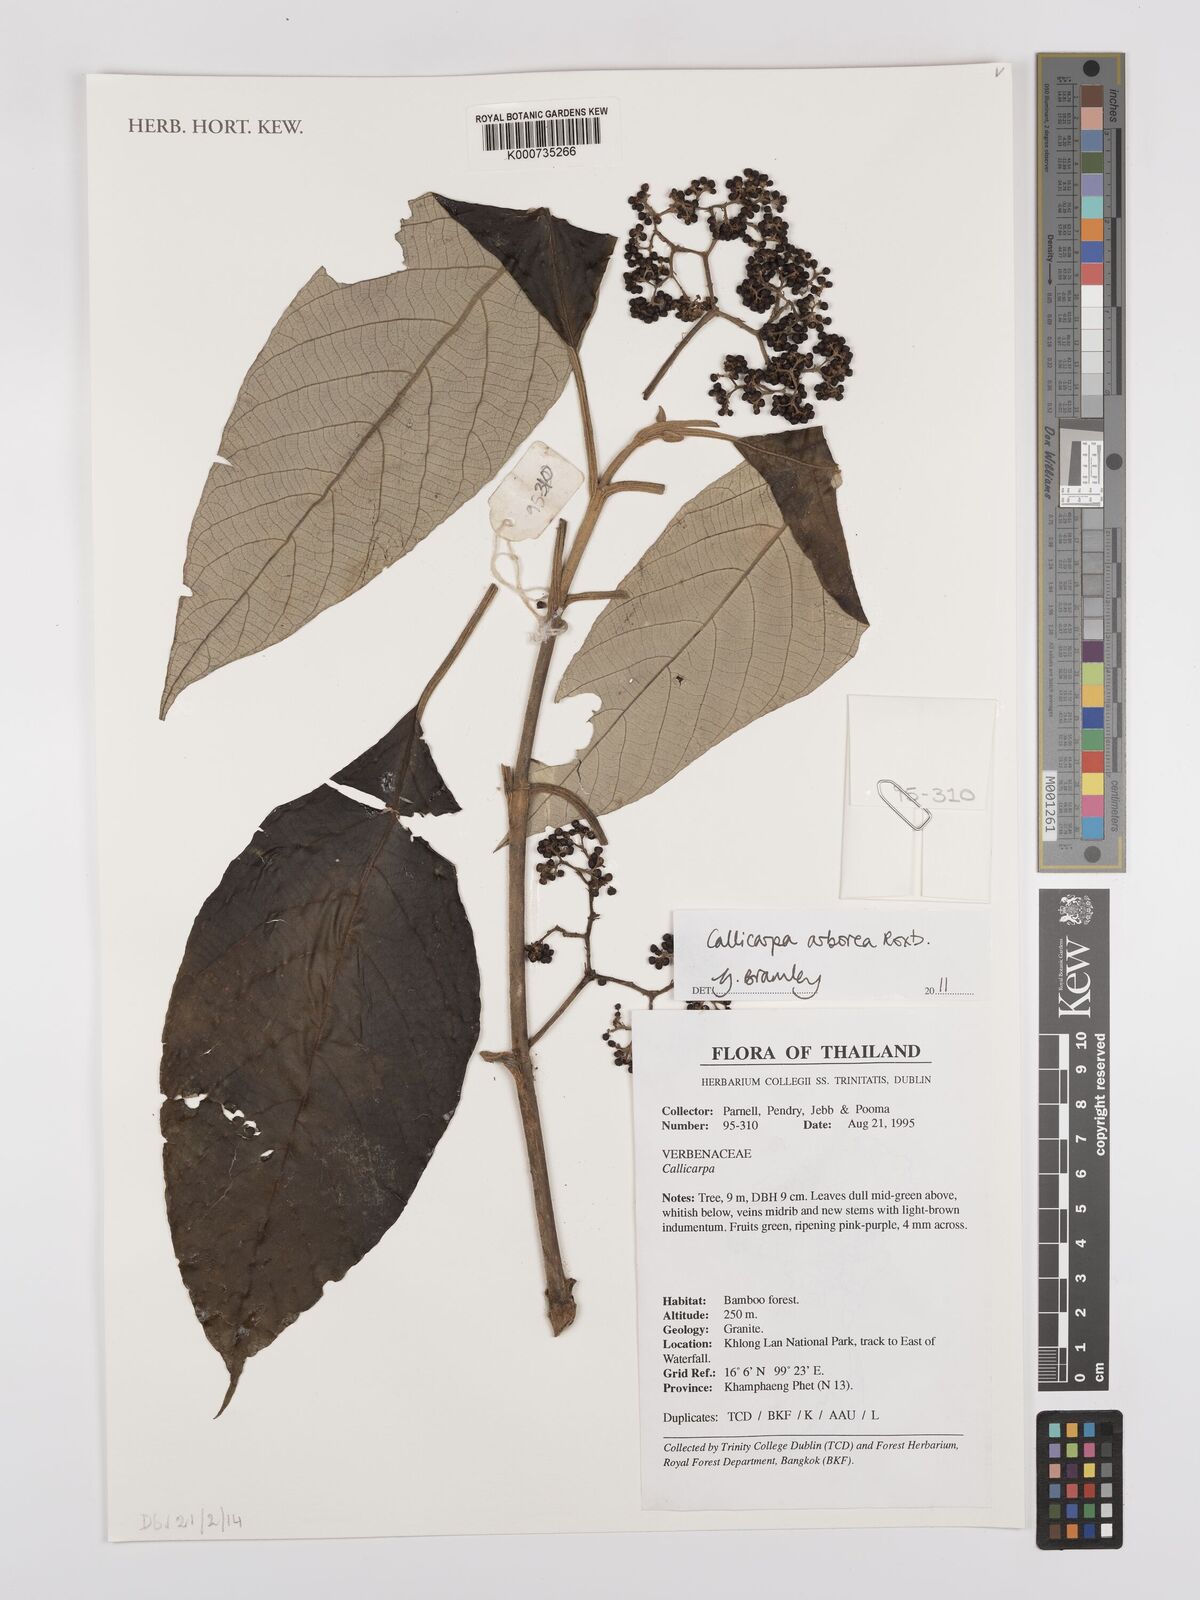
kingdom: Plantae
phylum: Tracheophyta
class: Magnoliopsida
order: Lamiales
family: Lamiaceae
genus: Callicarpa
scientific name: Callicarpa arborea
